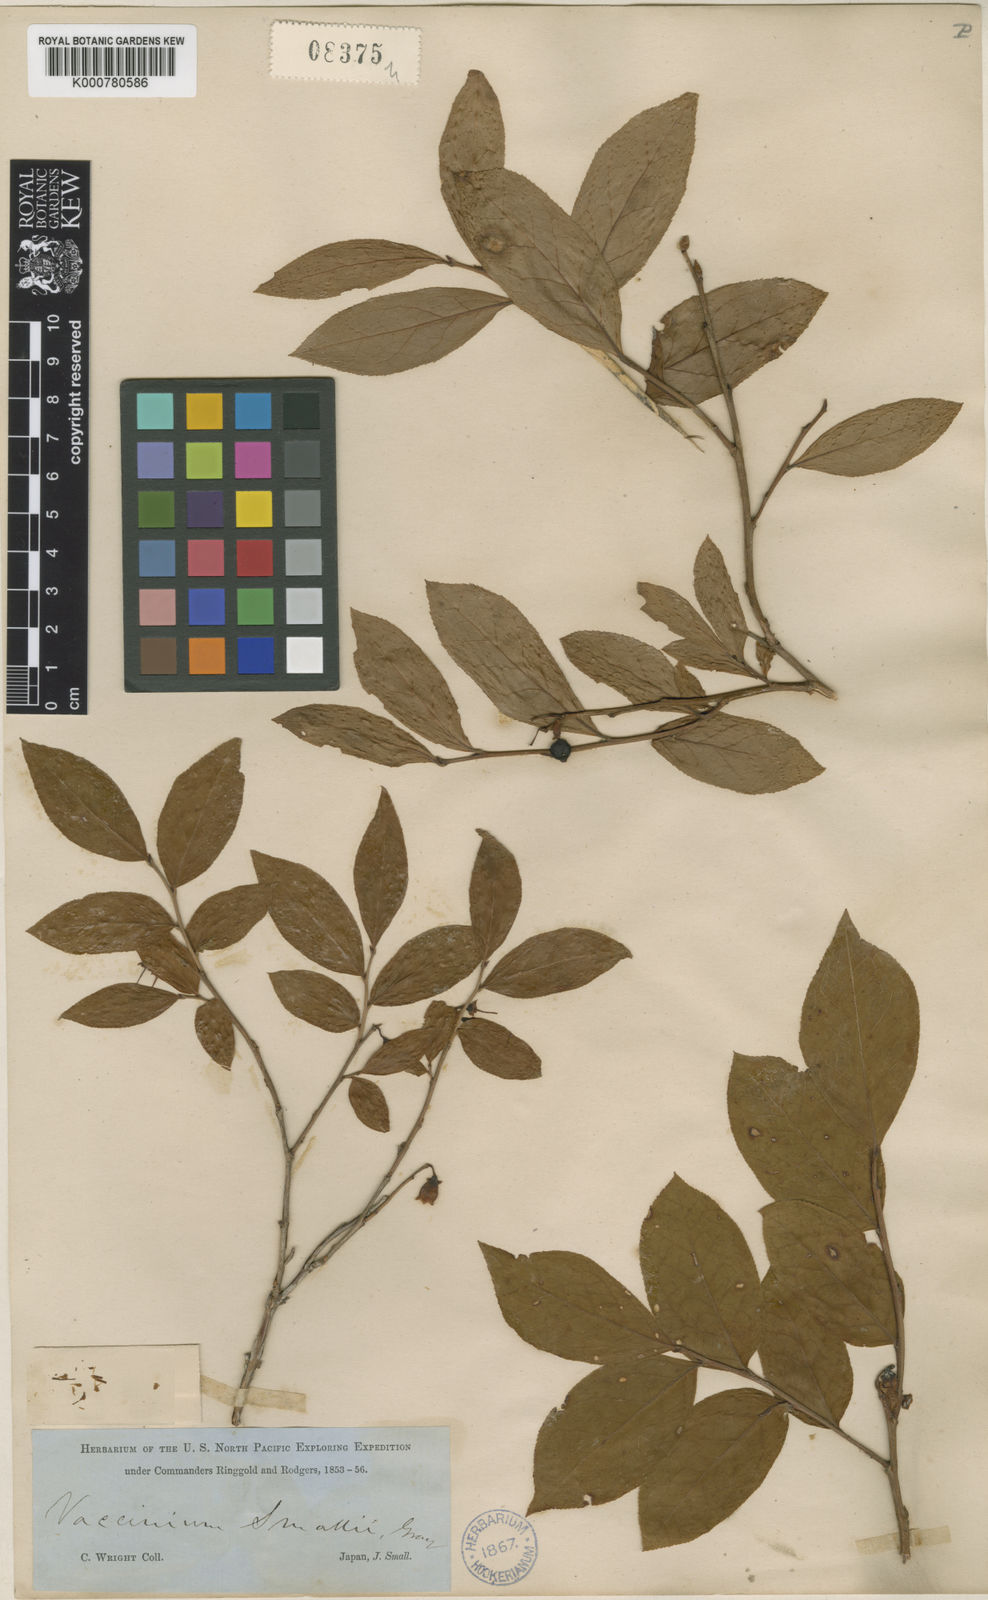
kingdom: Plantae
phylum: Tracheophyta
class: Magnoliopsida
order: Ericales
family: Ericaceae
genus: Vaccinium
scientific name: Vaccinium smallii
